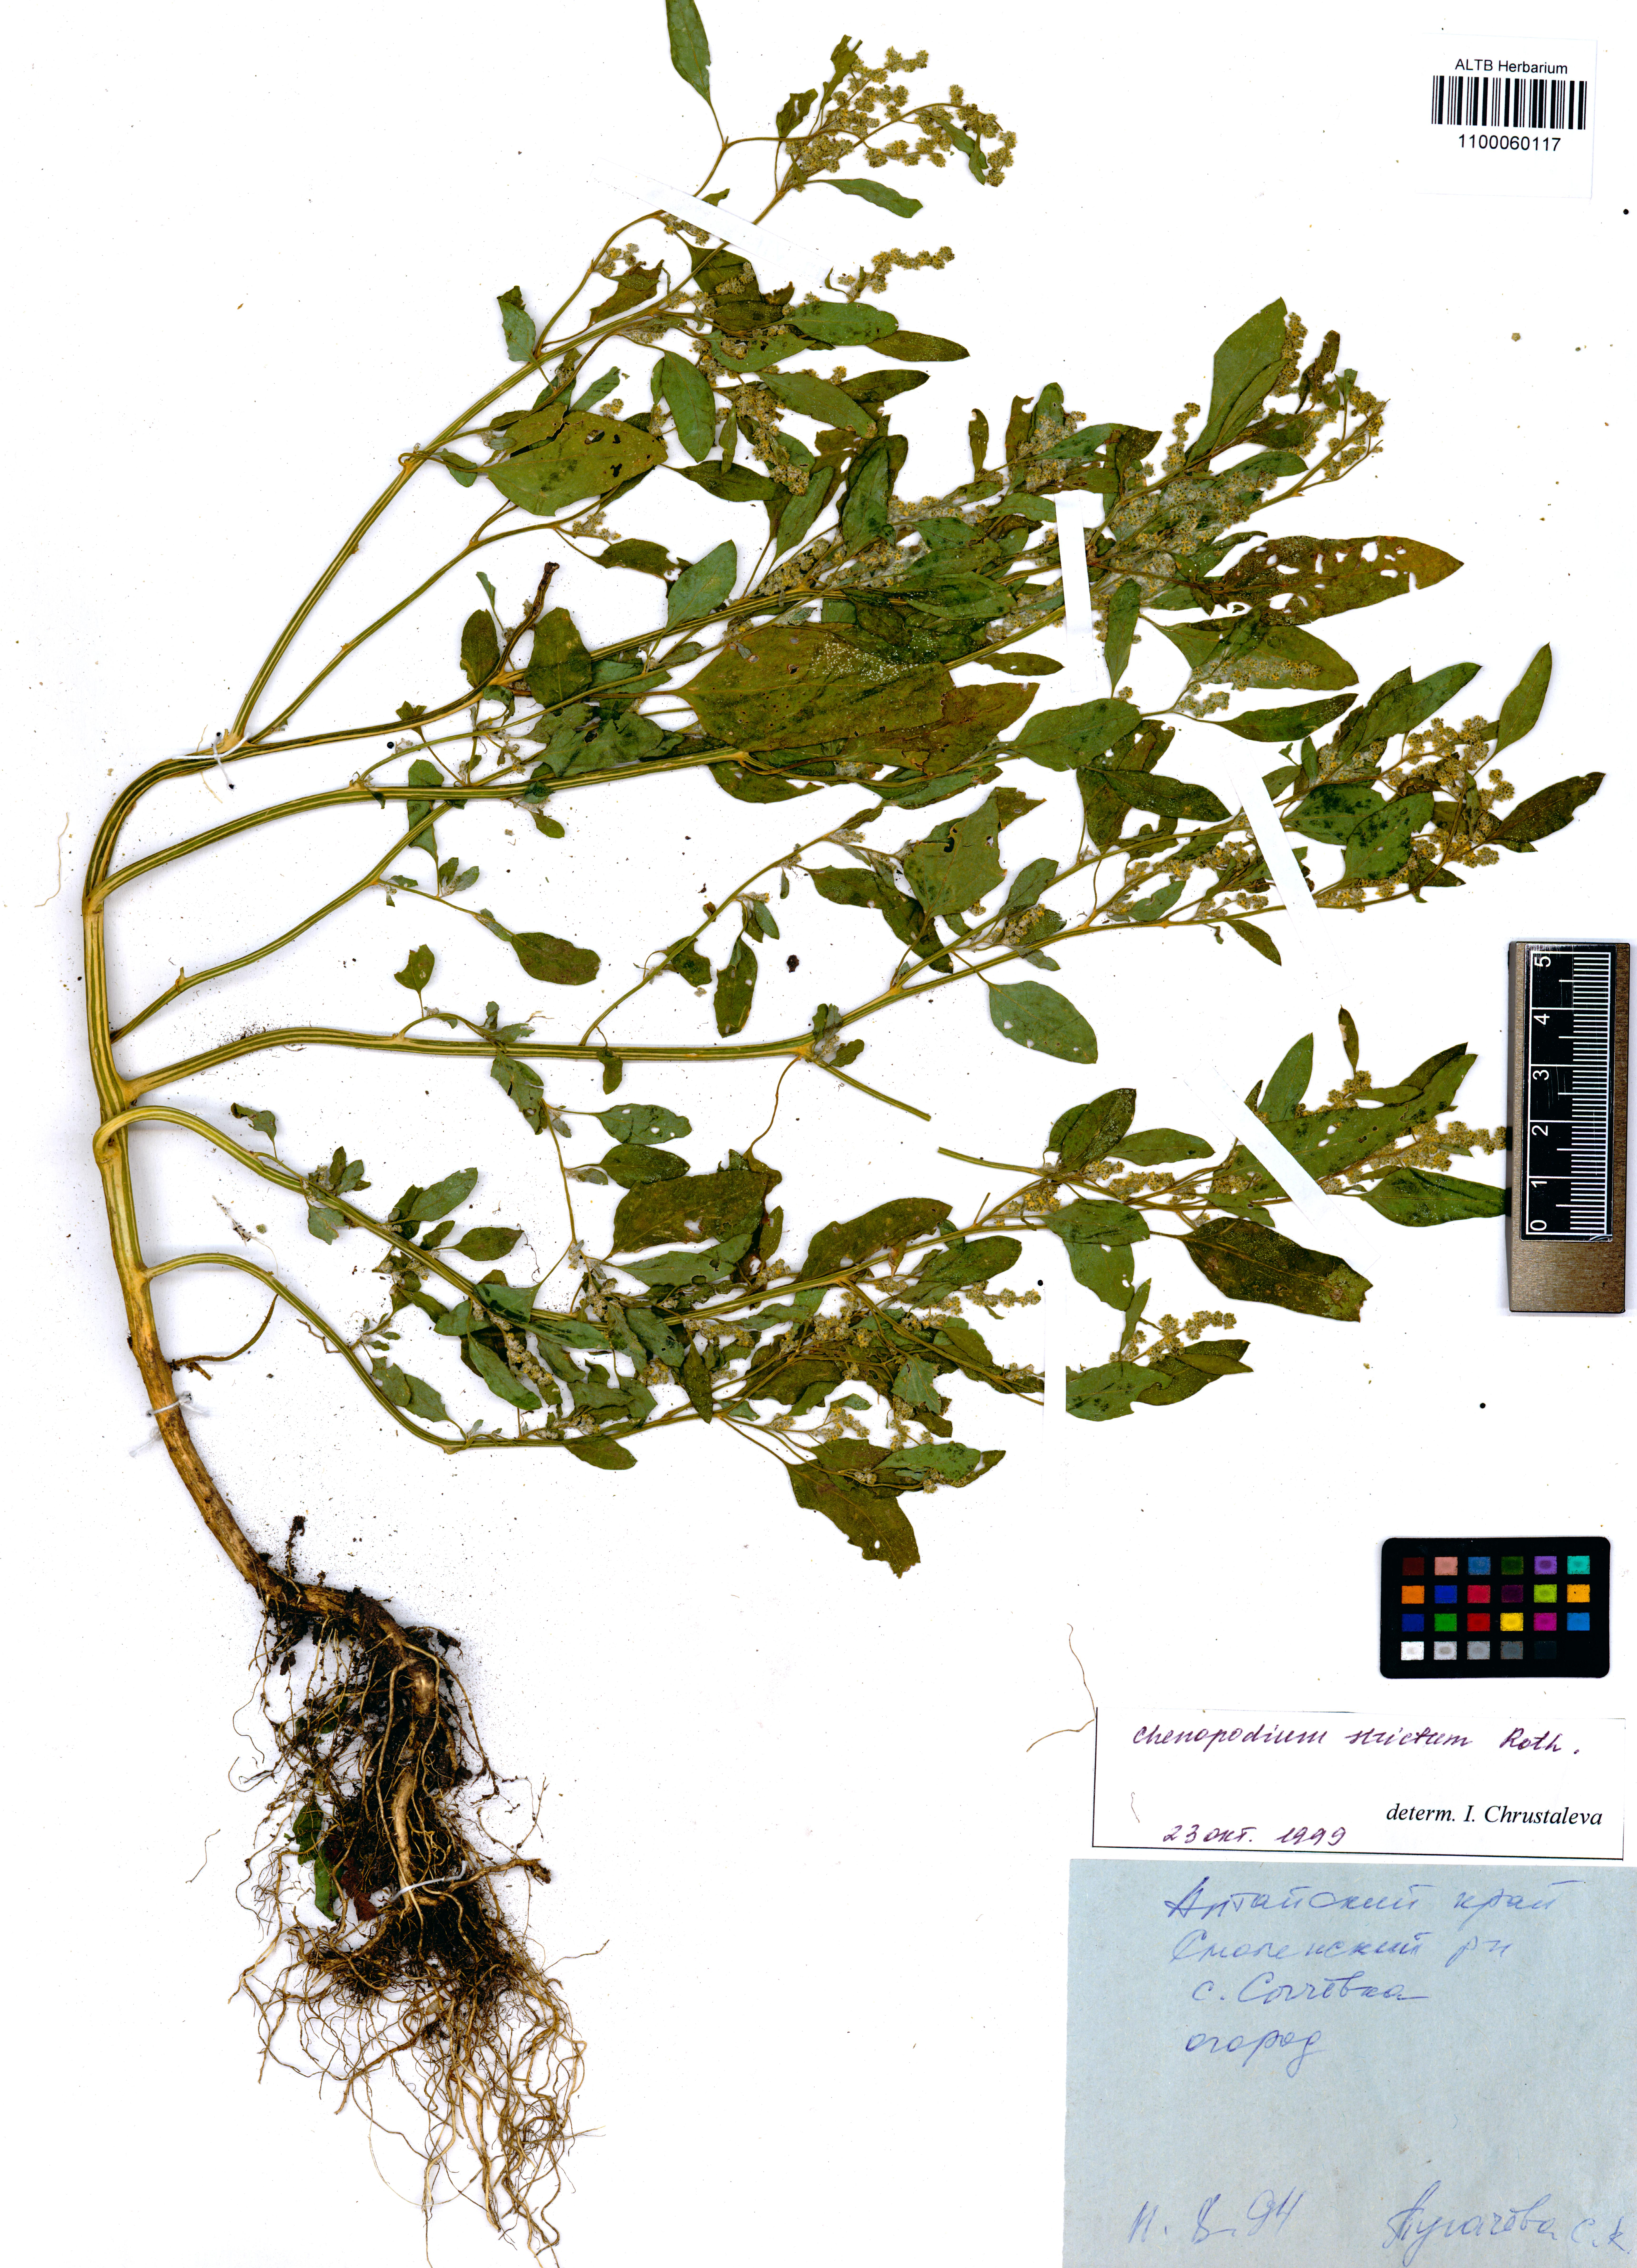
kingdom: Plantae
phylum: Tracheophyta
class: Magnoliopsida
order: Caryophyllales
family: Amaranthaceae
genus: Chenopodium
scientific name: Chenopodium album
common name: Fat-hen
